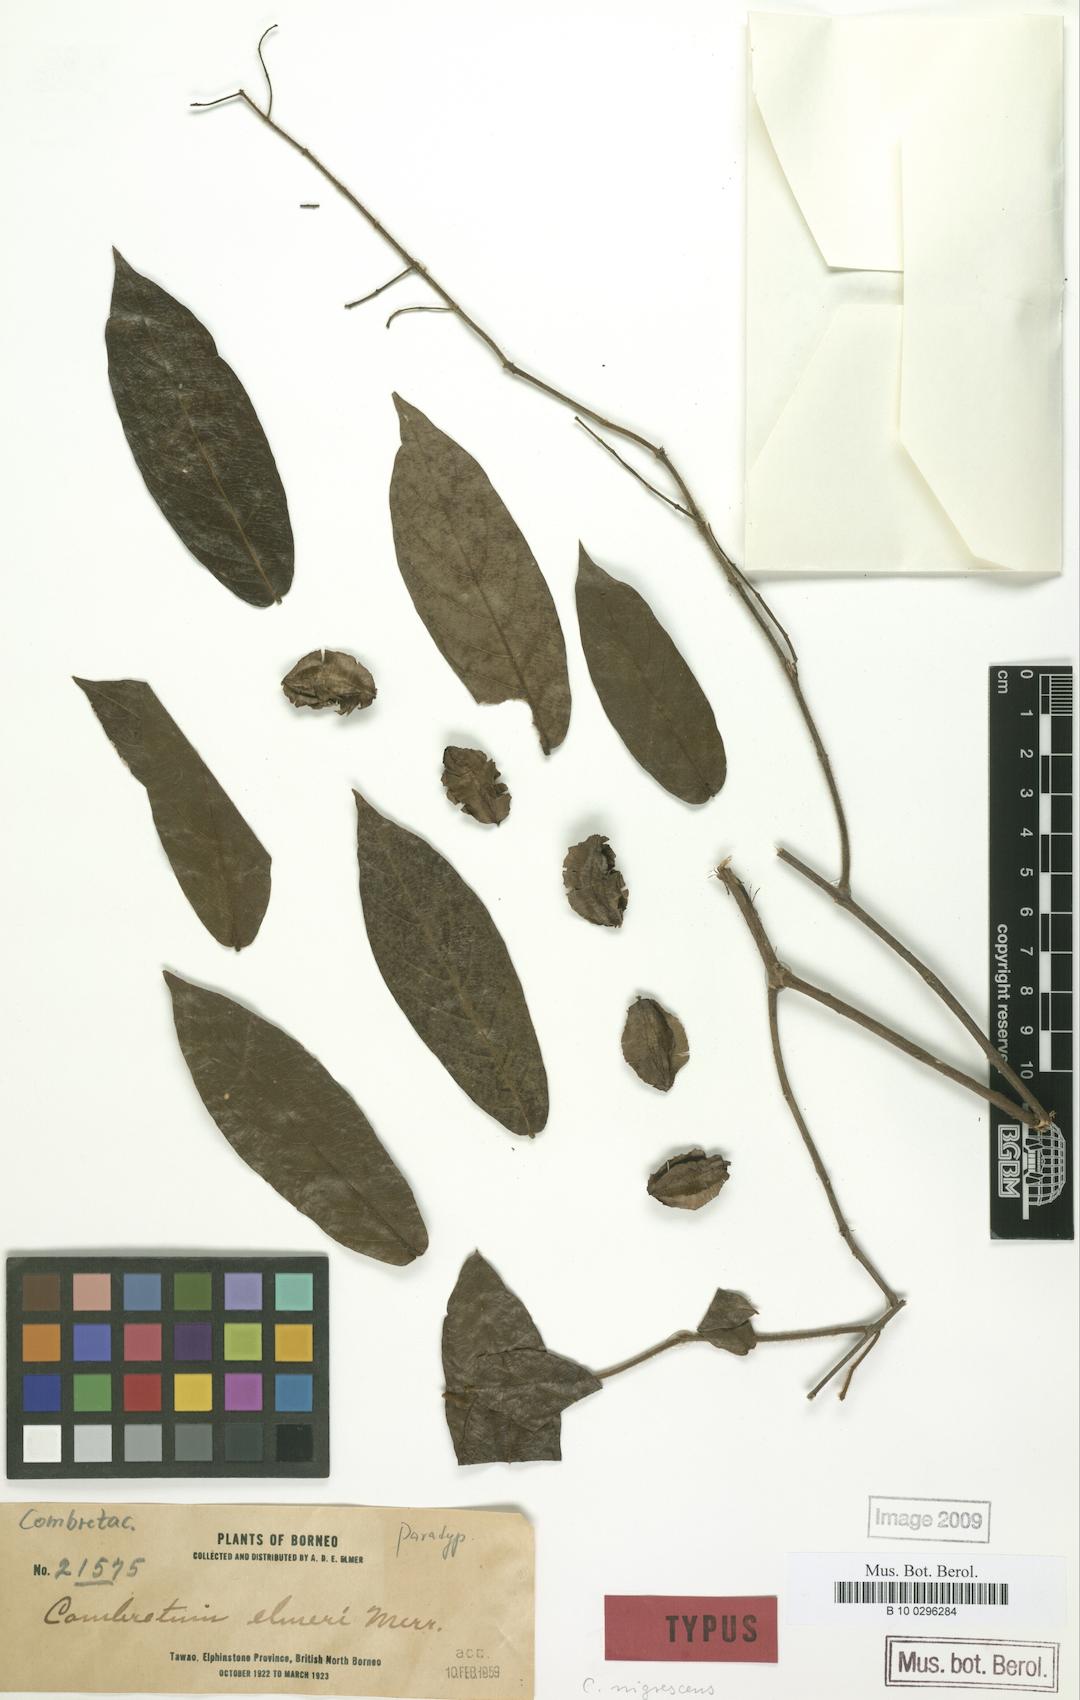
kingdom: Plantae
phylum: Tracheophyta
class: Magnoliopsida
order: Myrtales
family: Combretaceae
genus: Combretum
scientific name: Combretum nigrescens
